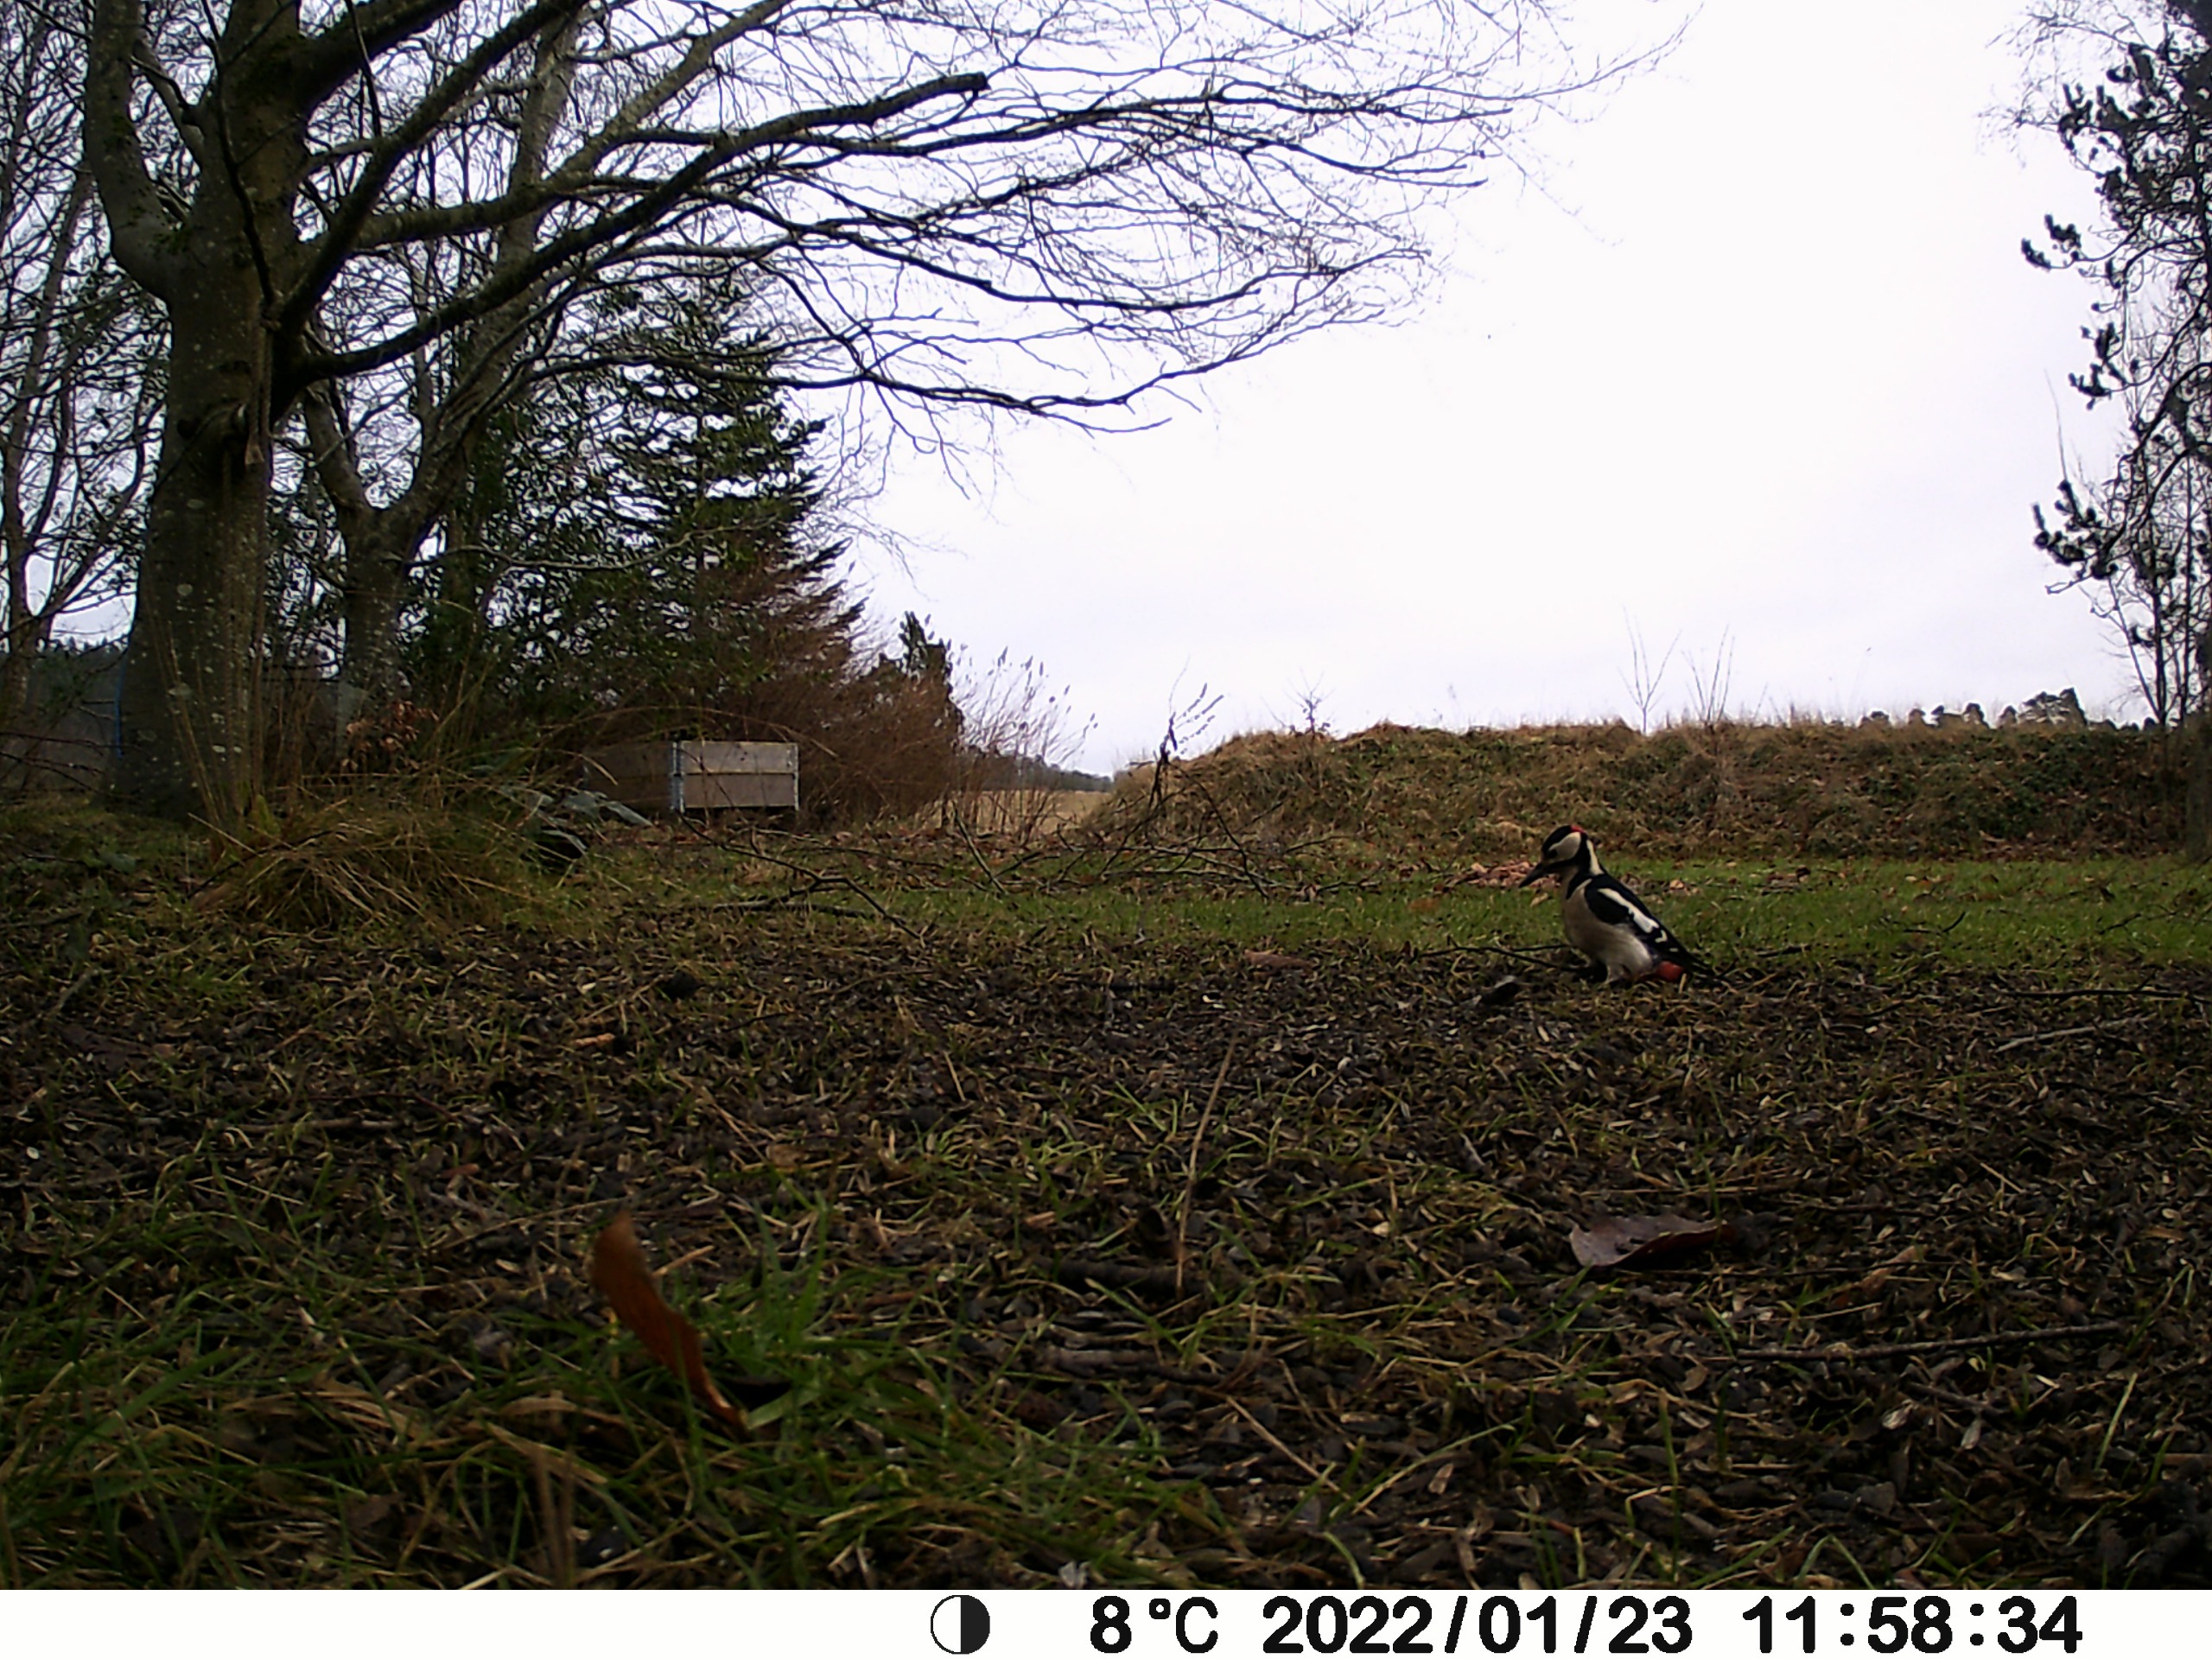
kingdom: Animalia
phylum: Chordata
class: Aves
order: Piciformes
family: Picidae
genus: Dendrocopos
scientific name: Dendrocopos major
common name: Stor flagspætte
